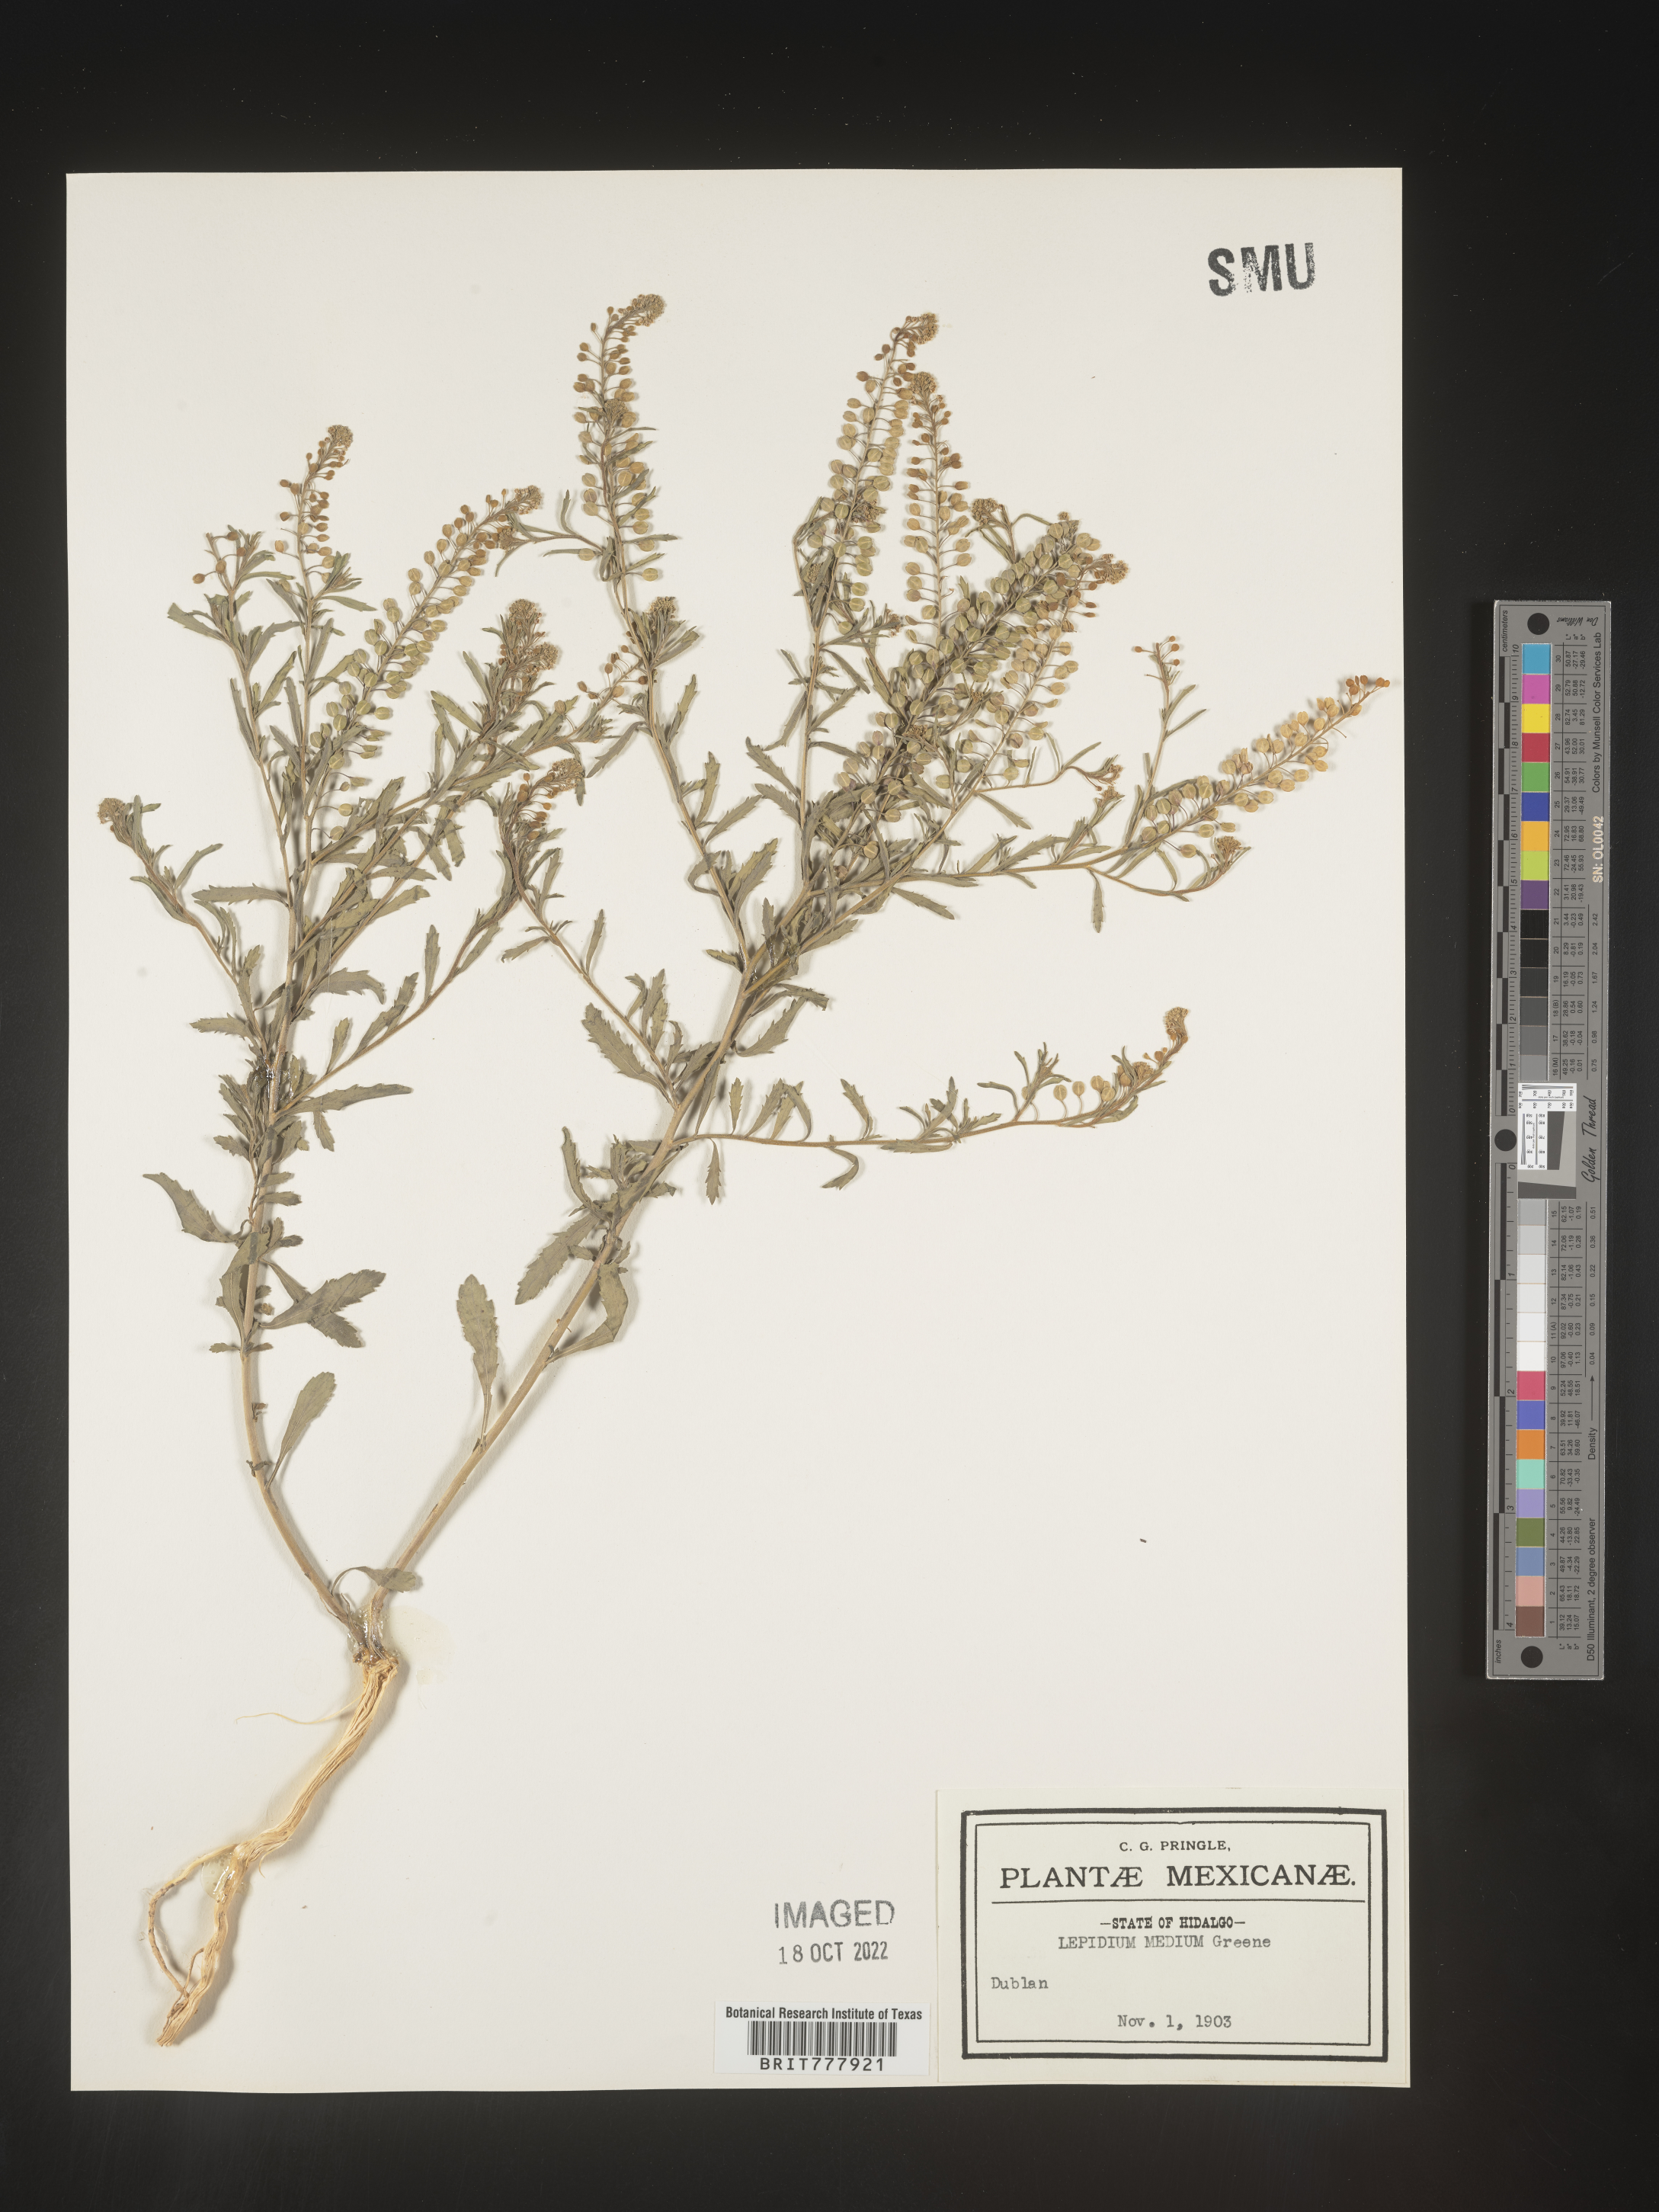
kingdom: Plantae
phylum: Tracheophyta
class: Magnoliopsida
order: Brassicales
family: Brassicaceae
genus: Lepidium
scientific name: Lepidium
